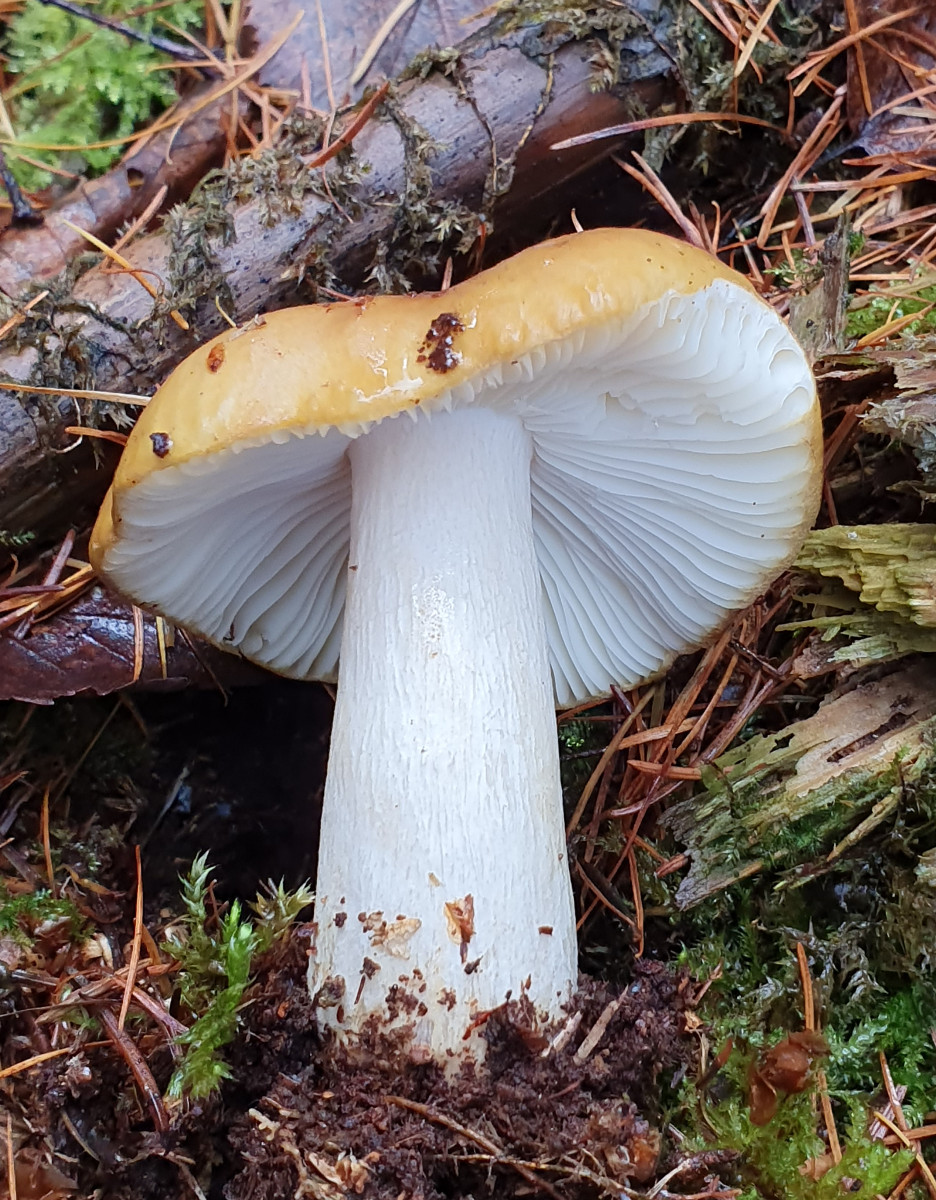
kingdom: Fungi
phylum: Basidiomycota
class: Agaricomycetes
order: Russulales
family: Russulaceae
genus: Russula
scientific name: Russula ochroleuca
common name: okkergul skørhat
